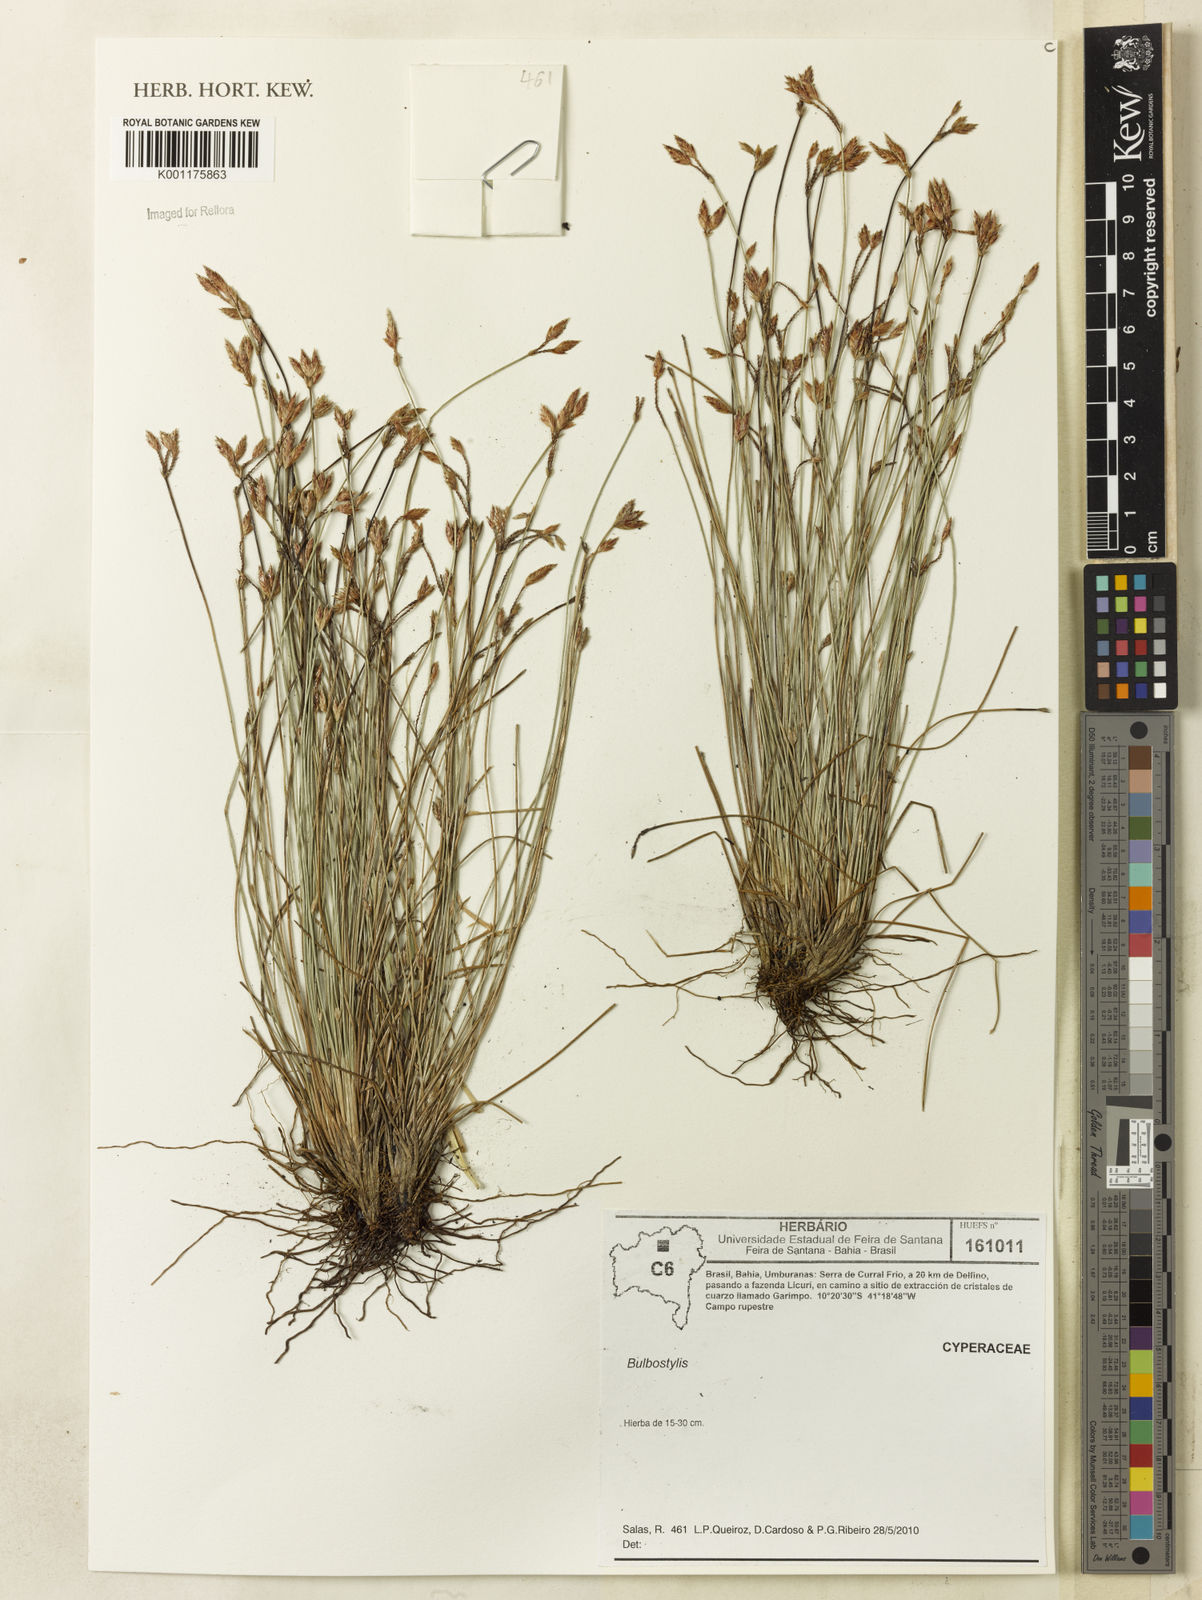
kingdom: Plantae
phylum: Tracheophyta
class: Liliopsida
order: Poales
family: Cyperaceae
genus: Bulbostylis
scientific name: Bulbostylis
